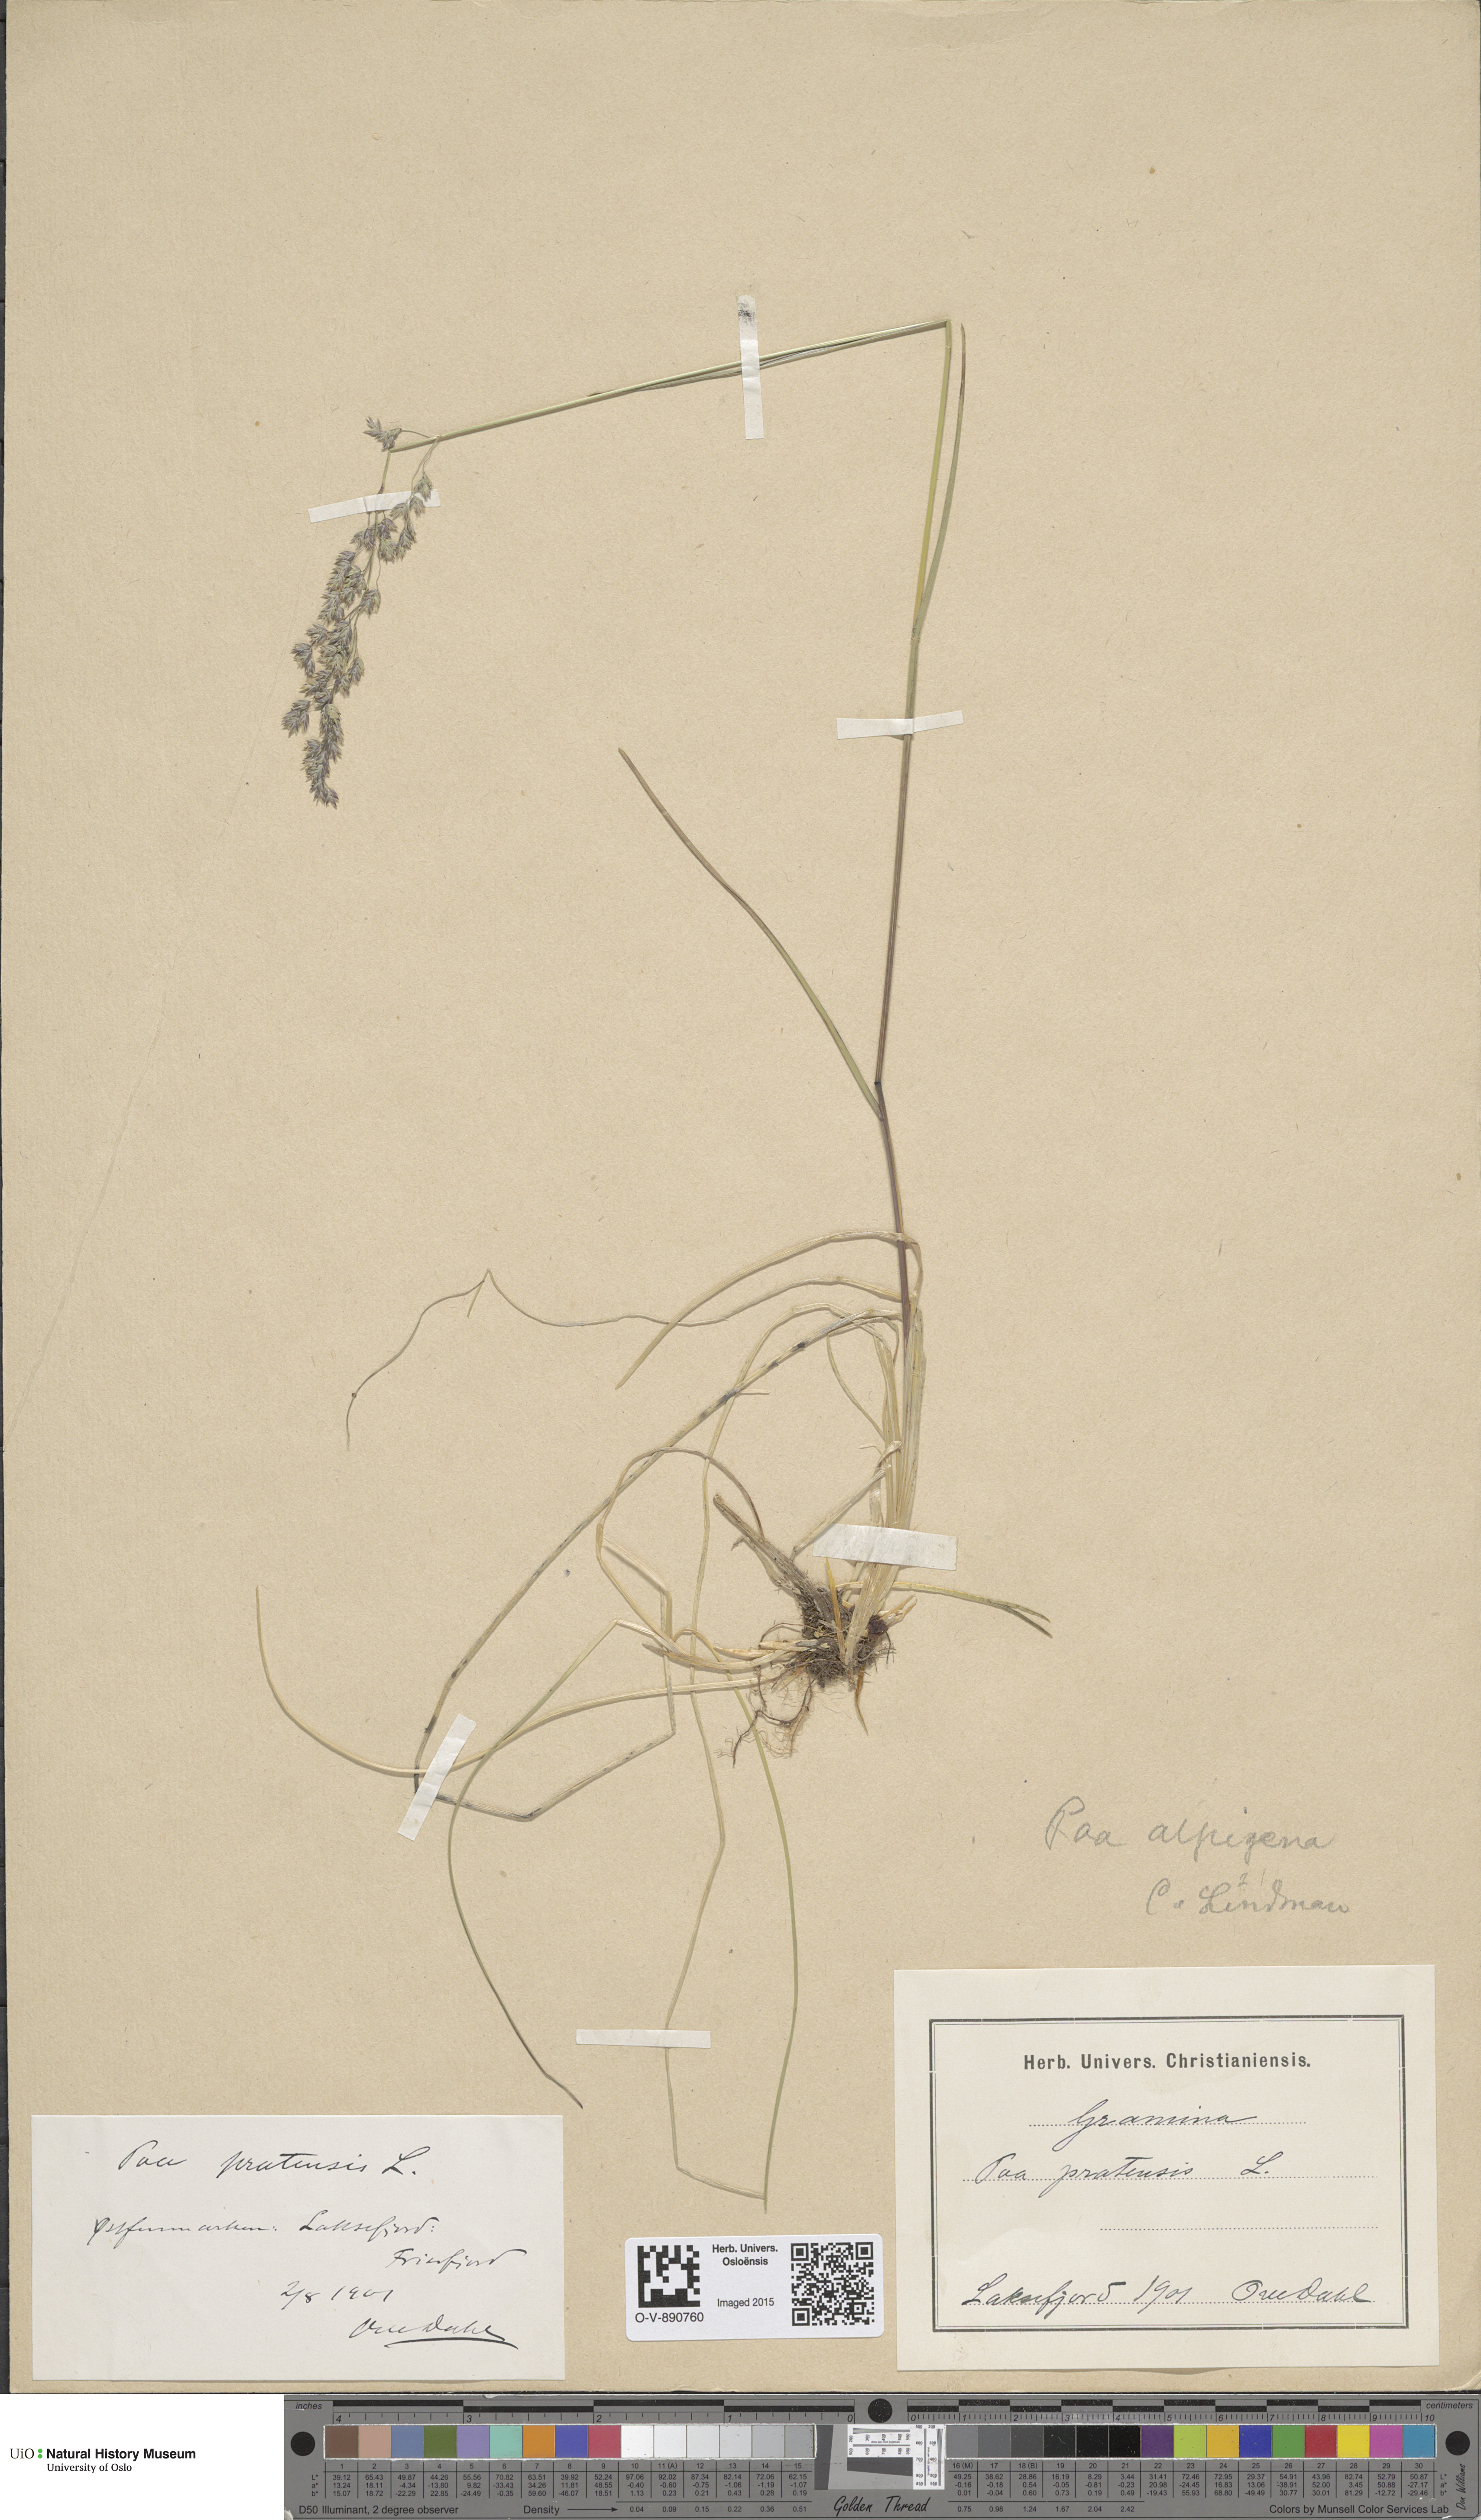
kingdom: Plantae
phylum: Tracheophyta
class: Liliopsida
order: Poales
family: Poaceae
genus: Poa
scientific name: Poa alpigena
